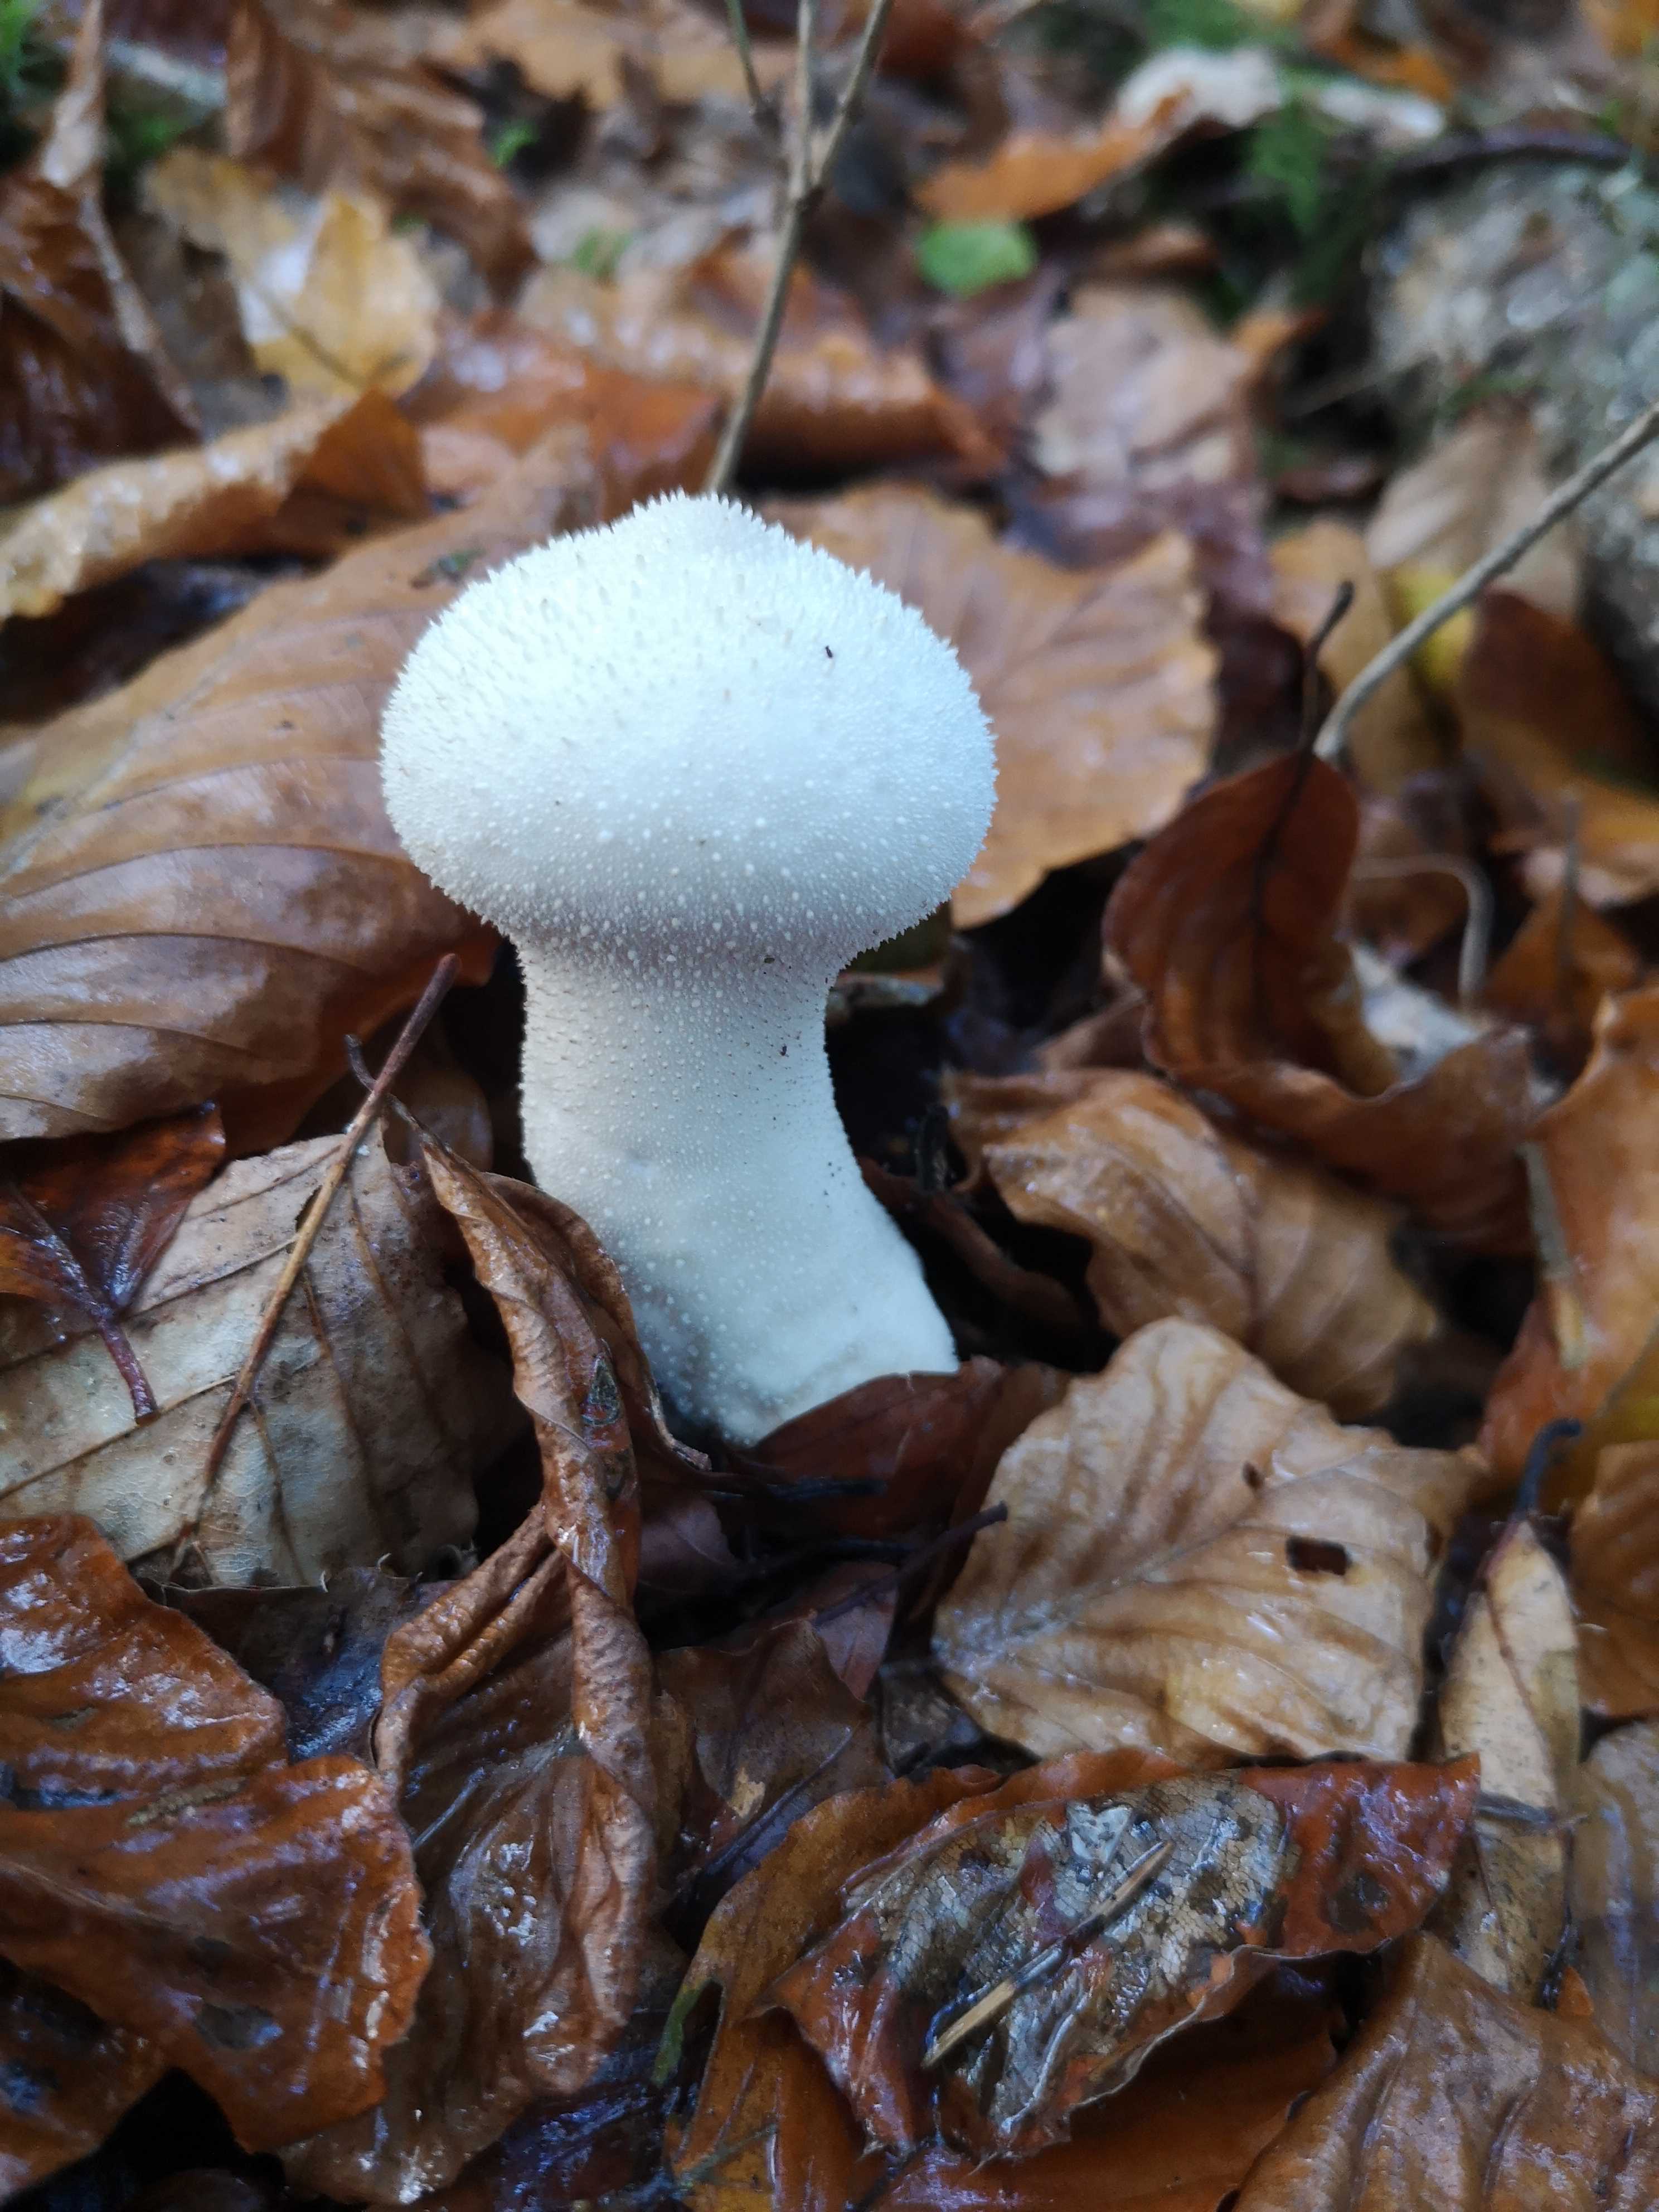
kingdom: Fungi
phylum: Basidiomycota
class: Agaricomycetes
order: Agaricales
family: Lycoperdaceae
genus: Lycoperdon
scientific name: Lycoperdon perlatum
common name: krystal-støvbold
